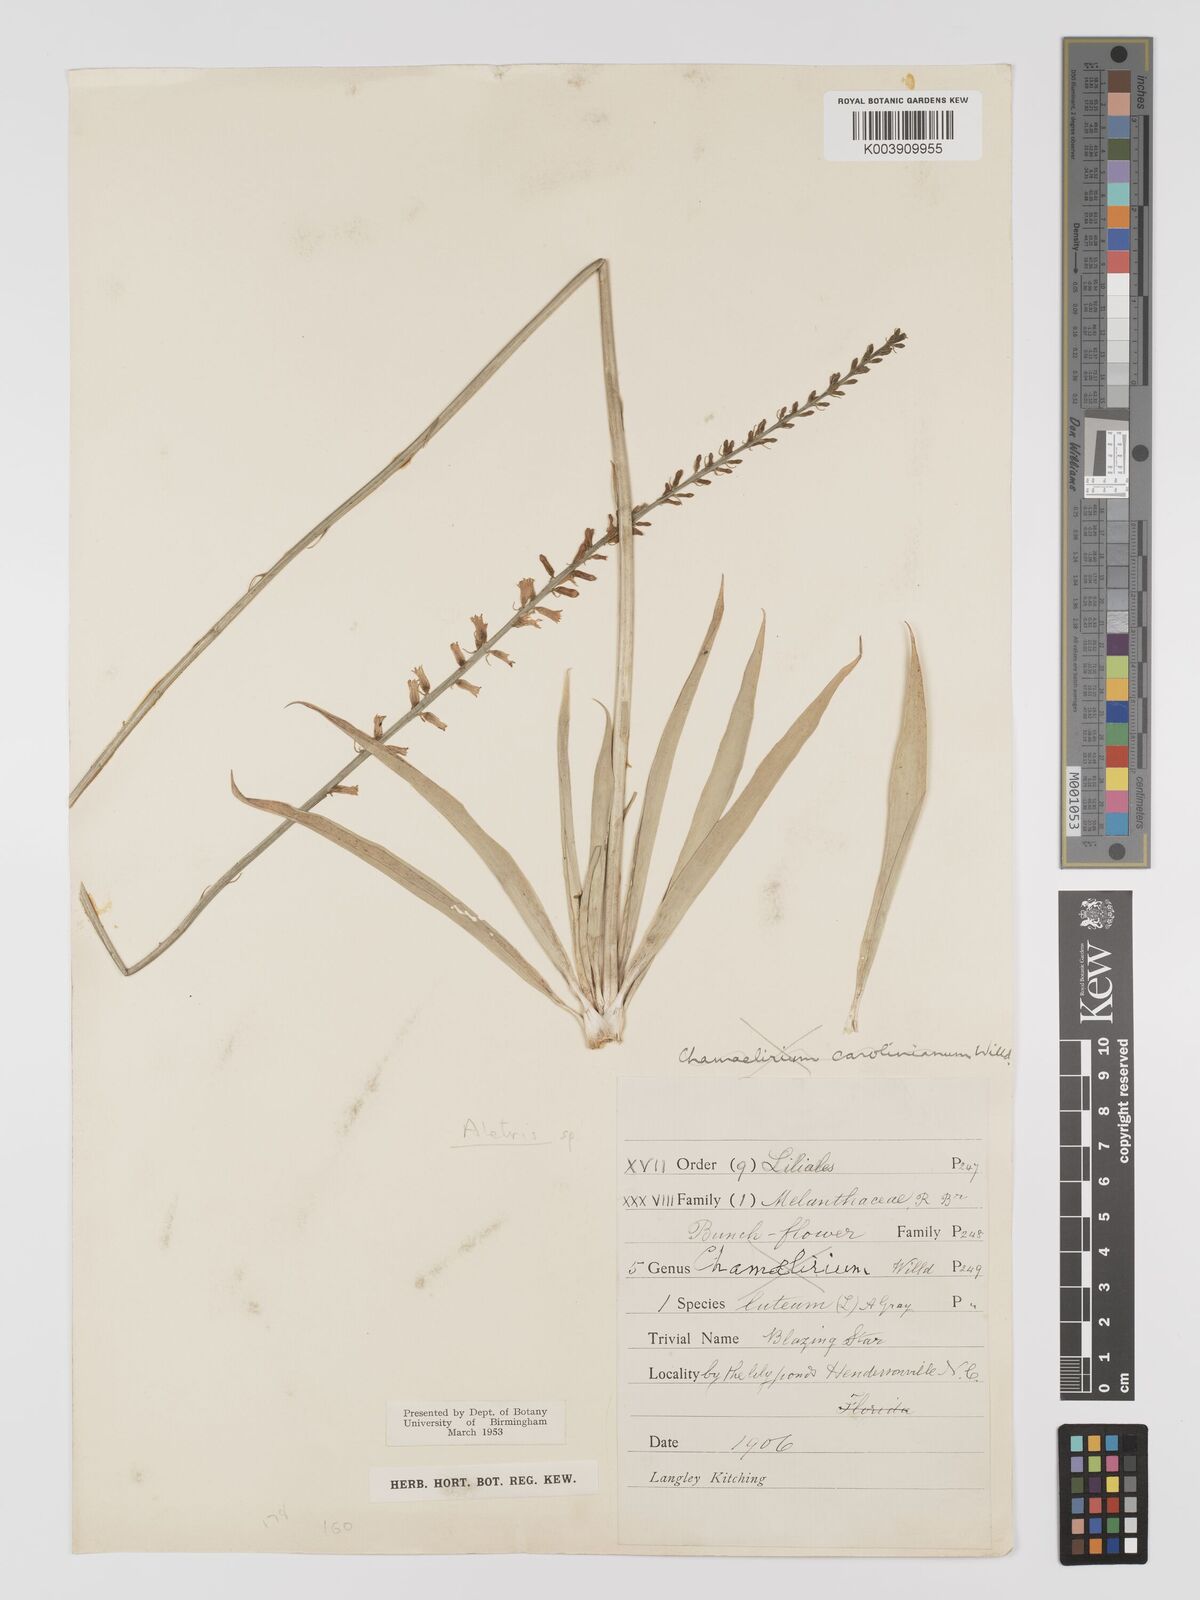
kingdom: Plantae
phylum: Tracheophyta
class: Liliopsida
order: Dioscoreales
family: Nartheciaceae
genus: Aletris
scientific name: Aletris
